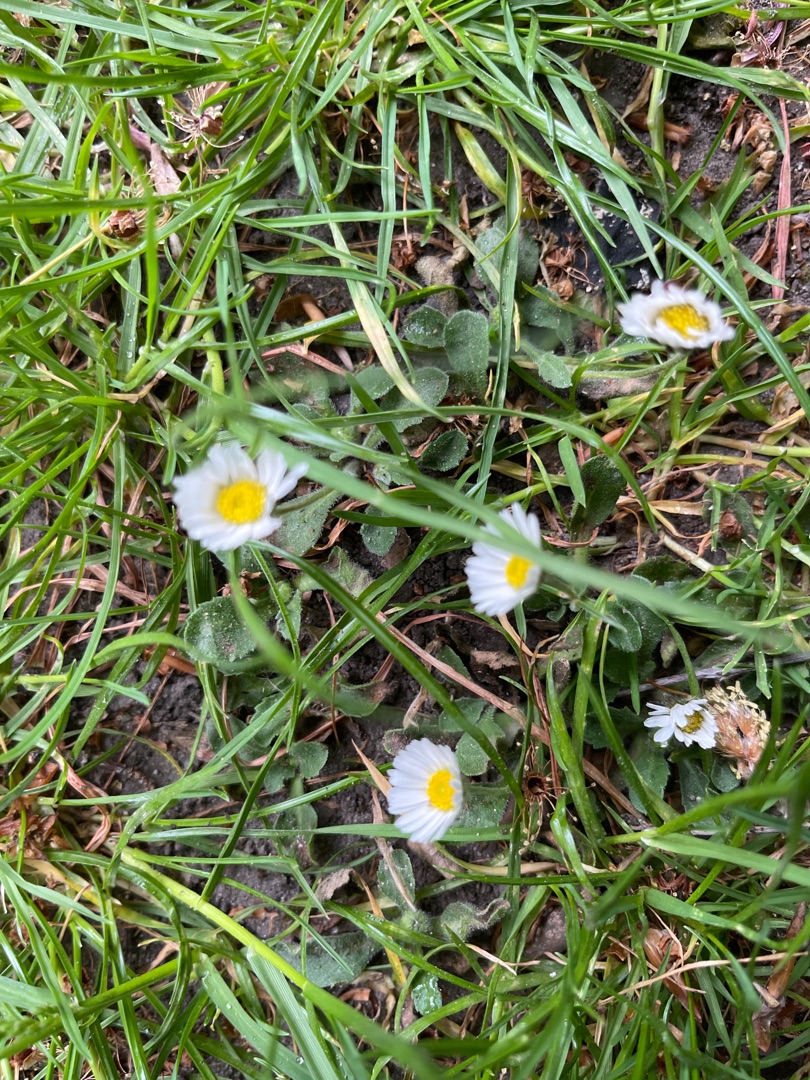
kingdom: Plantae
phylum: Tracheophyta
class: Magnoliopsida
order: Asterales
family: Asteraceae
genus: Bellis
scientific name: Bellis perennis
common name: Tusindfryd
